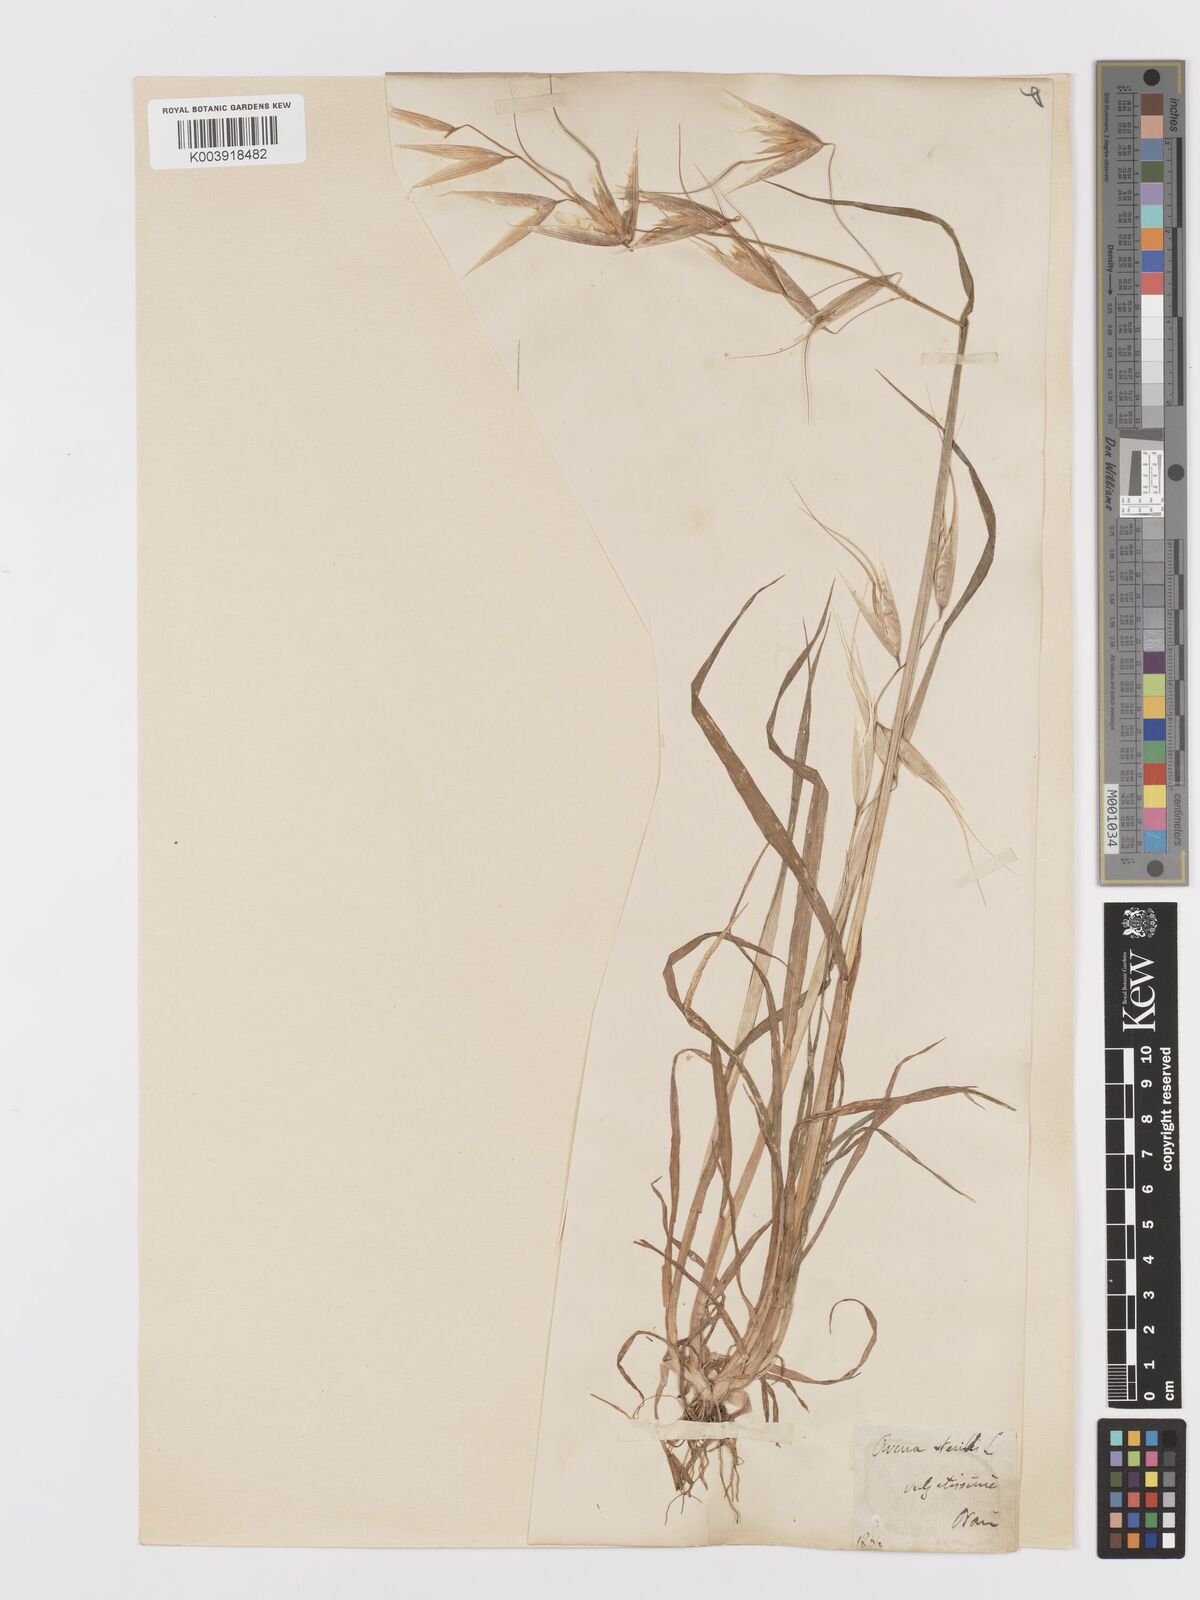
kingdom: Plantae
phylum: Tracheophyta
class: Liliopsida
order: Poales
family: Poaceae
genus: Avena
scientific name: Avena sterilis
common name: Animated oat
